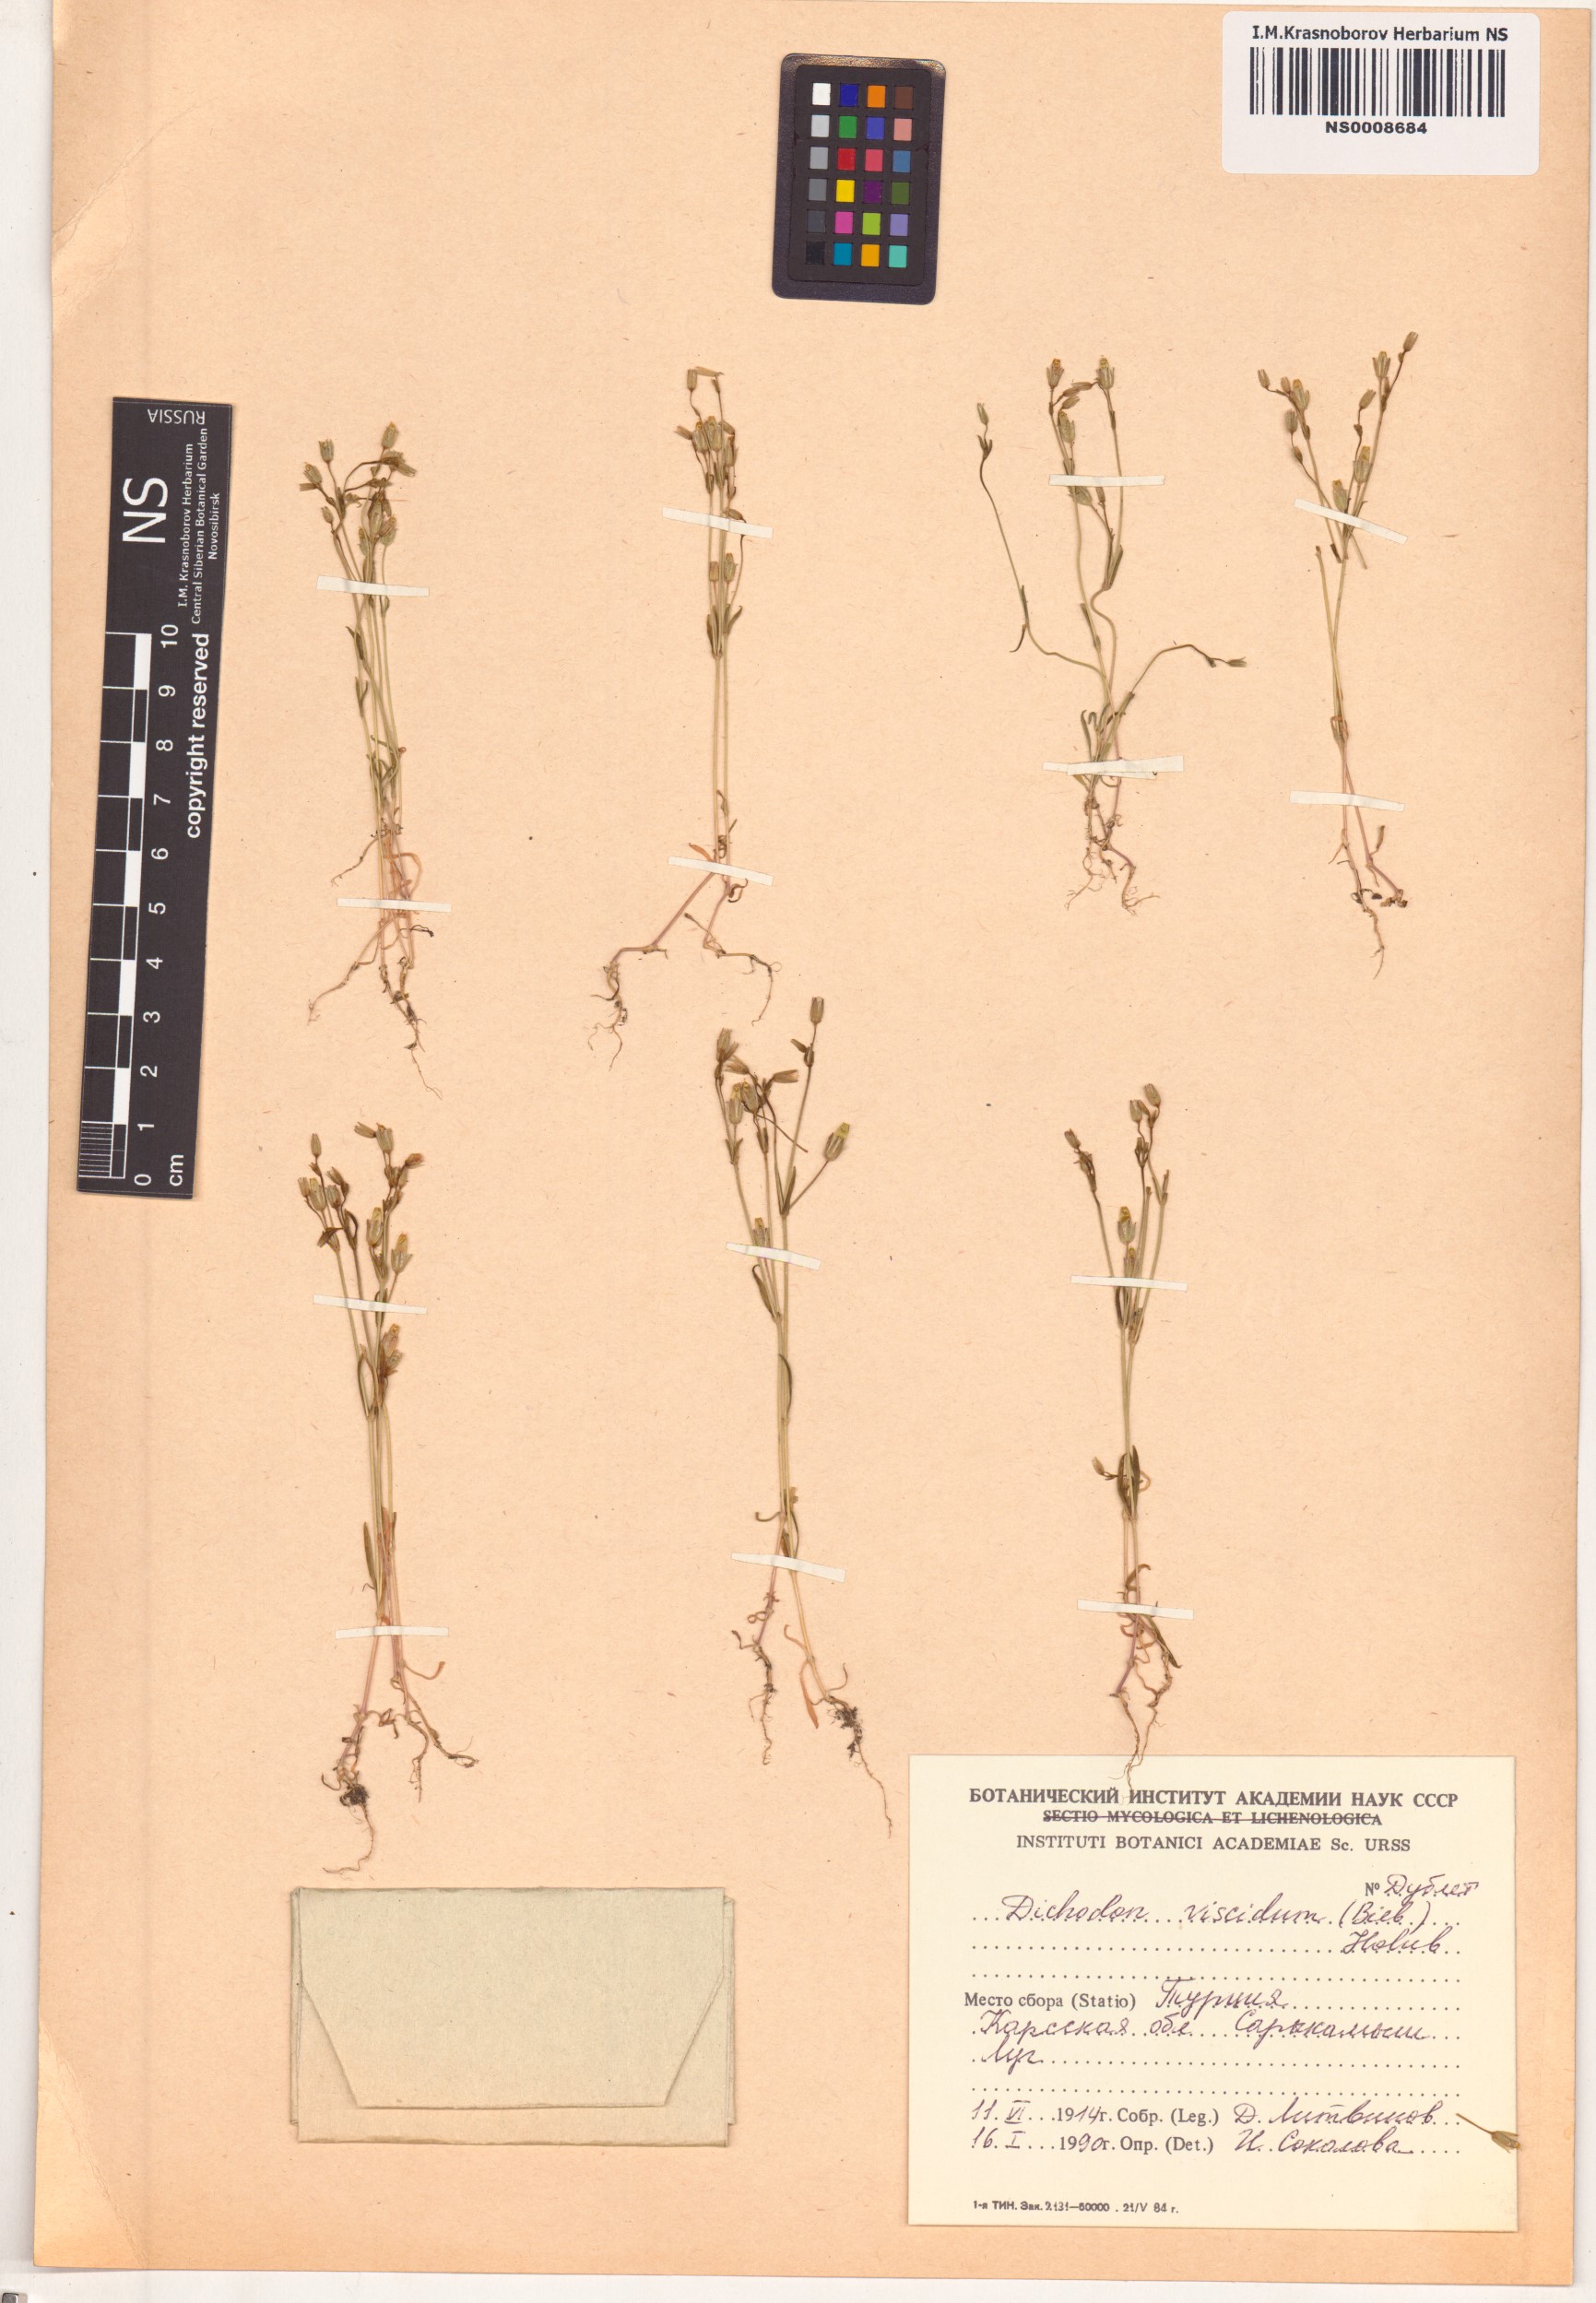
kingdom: Plantae
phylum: Tracheophyta
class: Magnoliopsida
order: Caryophyllales
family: Caryophyllaceae
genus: Dichodon
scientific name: Dichodon viscidum
